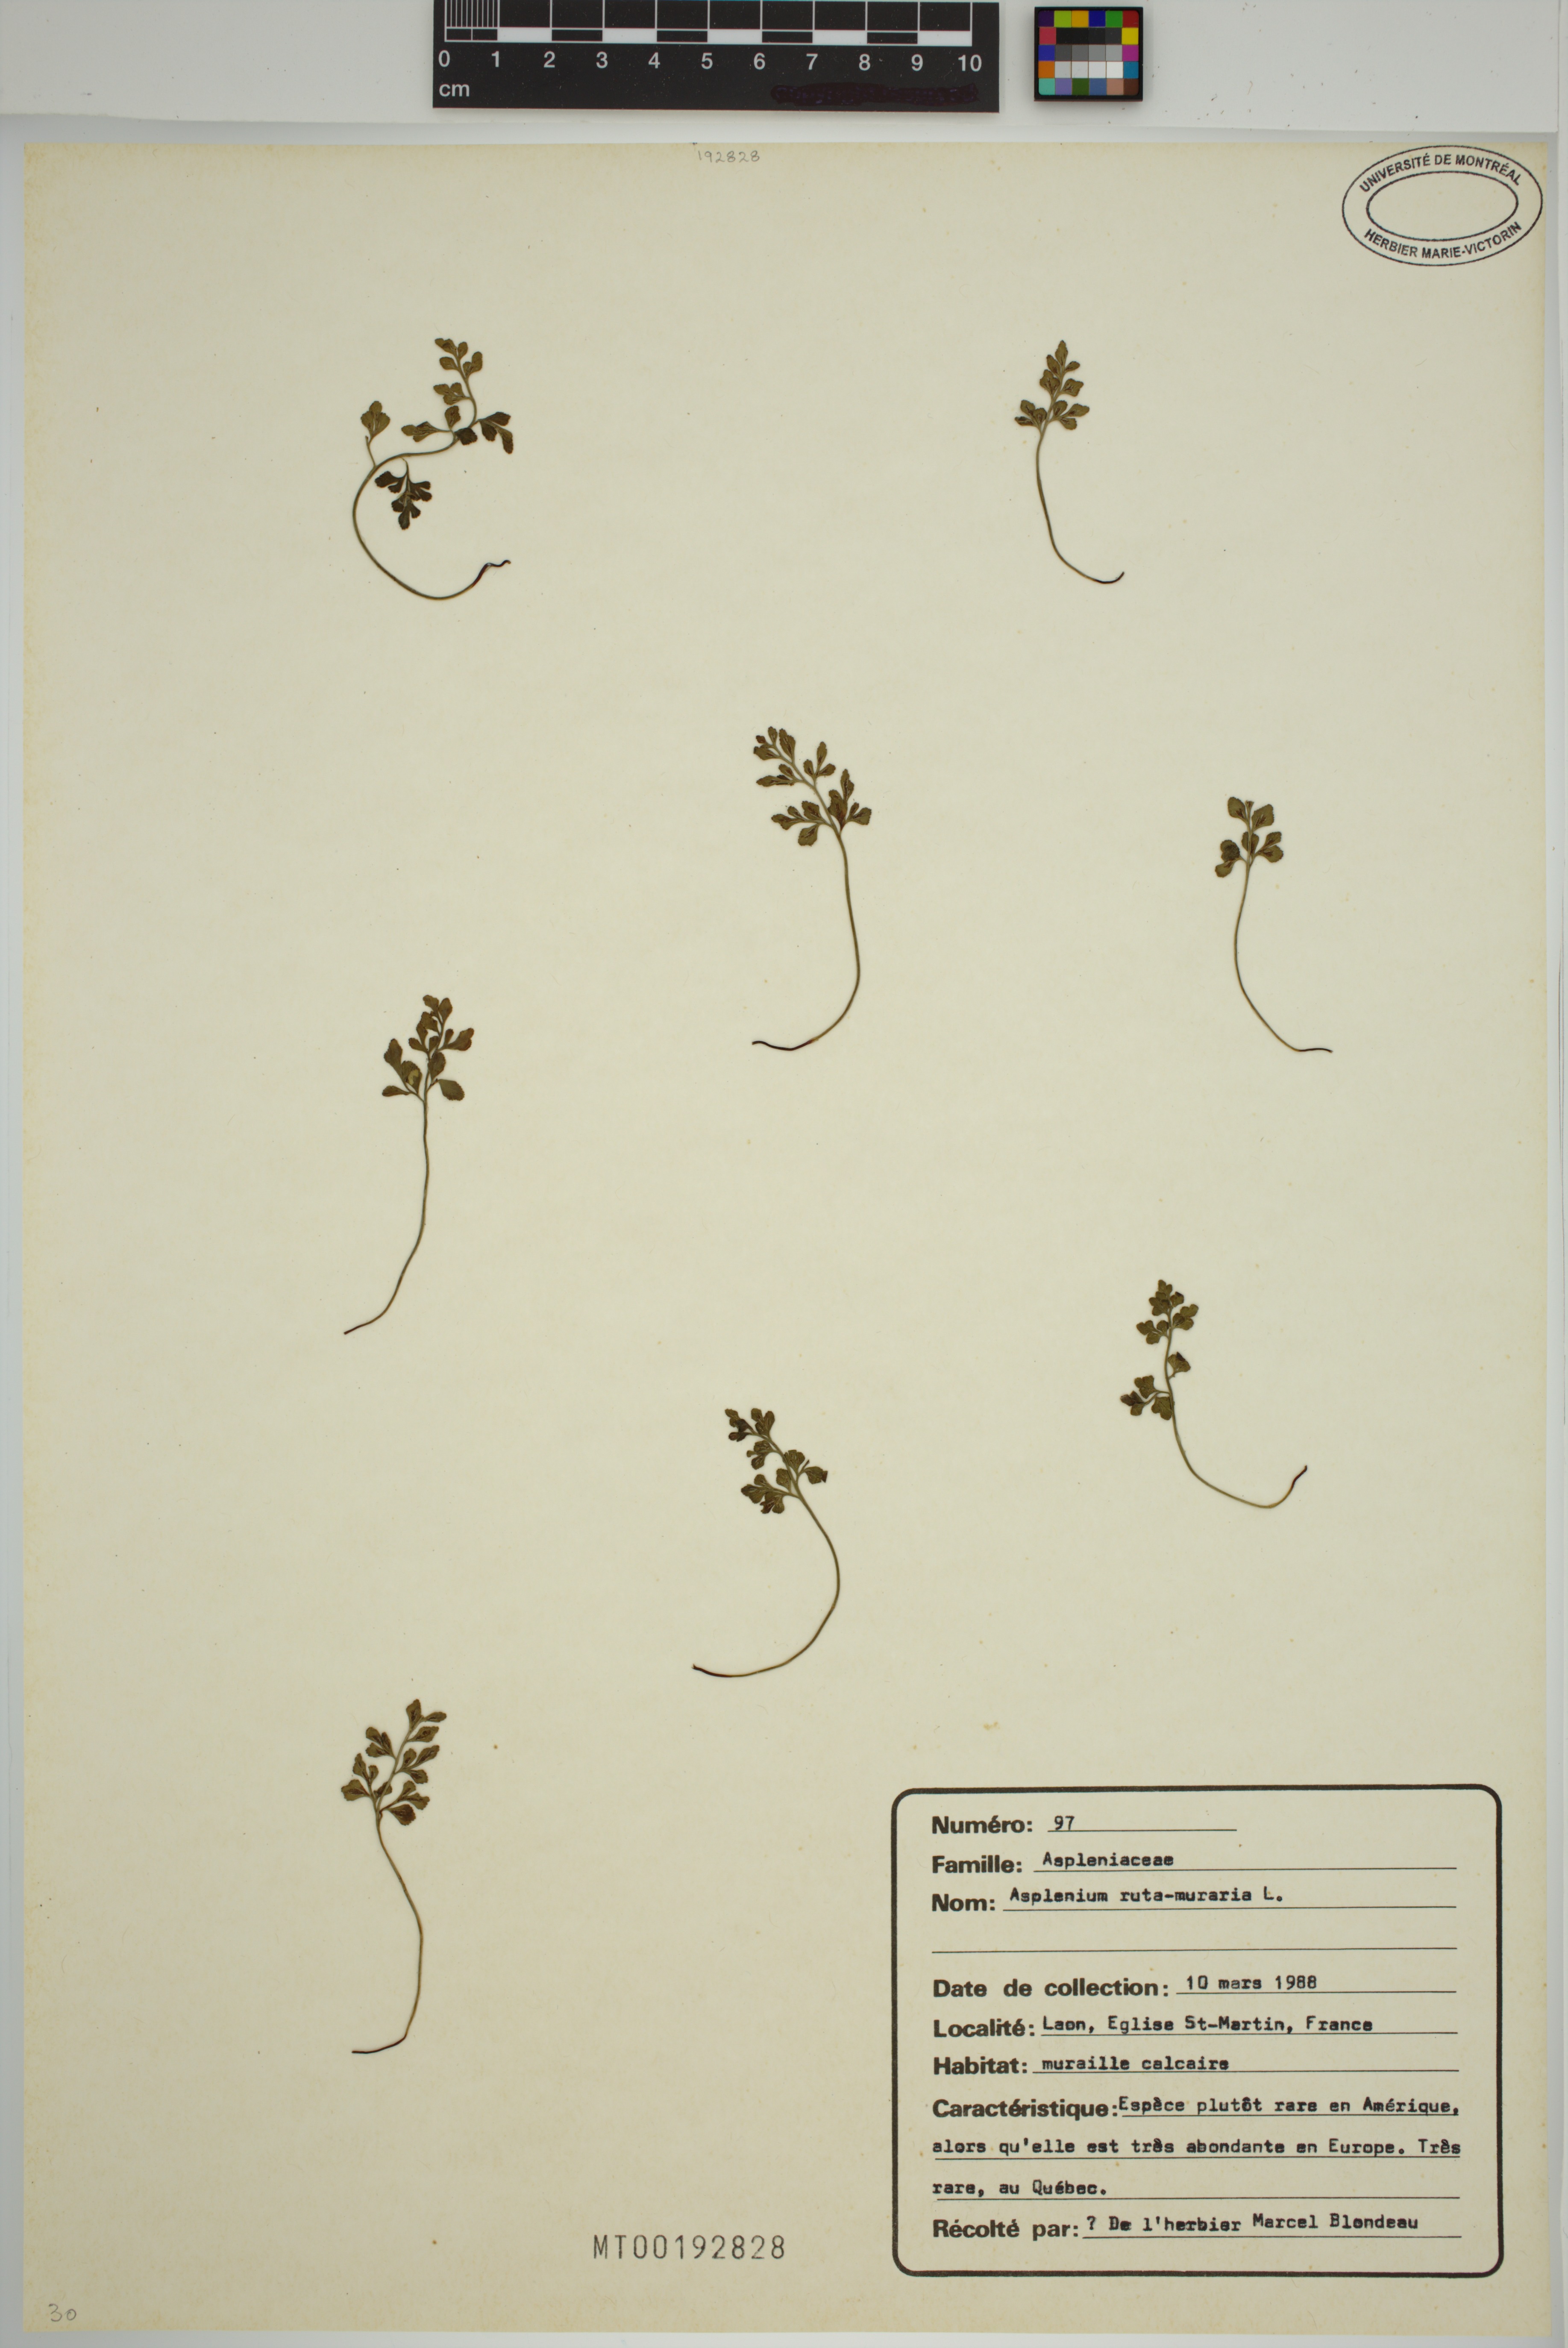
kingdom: Plantae
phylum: Tracheophyta
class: Polypodiopsida
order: Polypodiales
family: Aspleniaceae
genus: Asplenium
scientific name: Asplenium ruta-muraria
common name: Wall-rue
